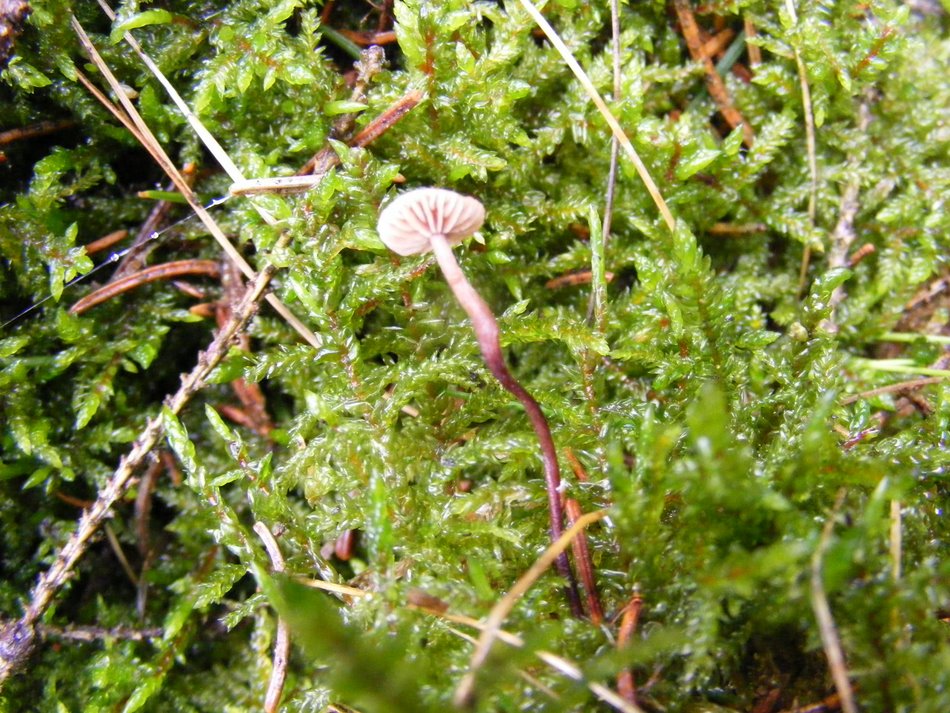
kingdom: Fungi
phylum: Basidiomycota
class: Agaricomycetes
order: Agaricales
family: Omphalotaceae
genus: Paragymnopus
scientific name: Paragymnopus perforans
